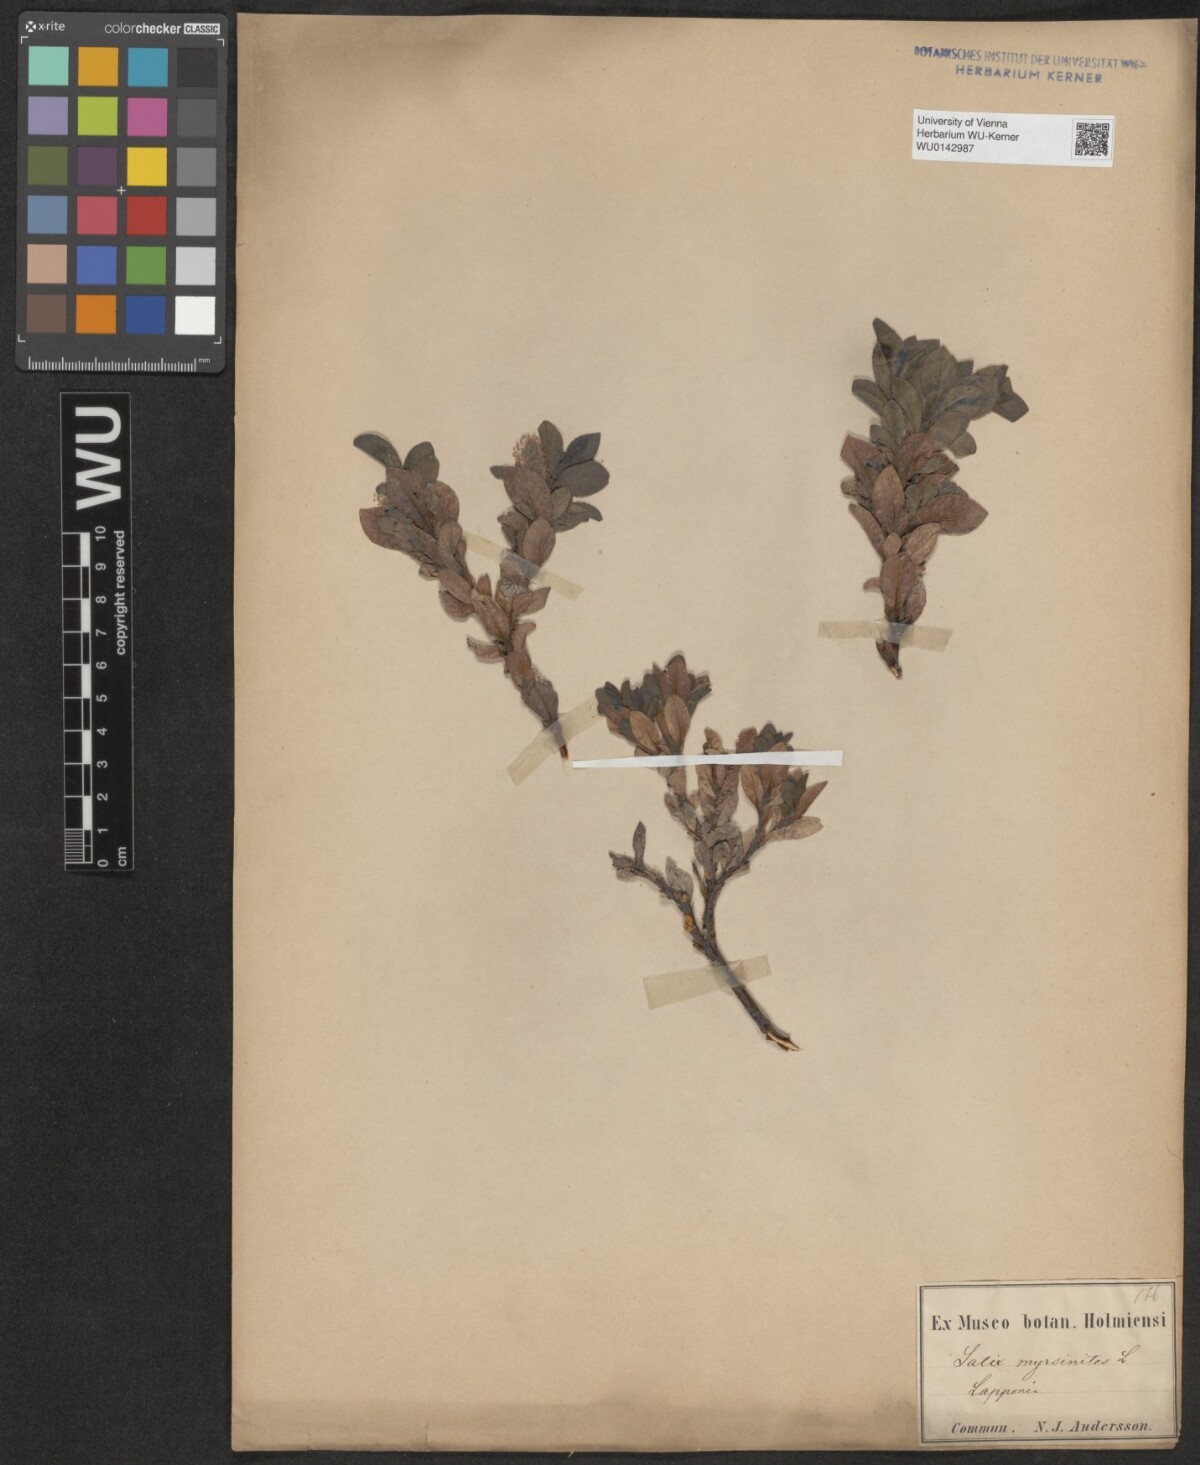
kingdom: Plantae
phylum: Tracheophyta
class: Magnoliopsida
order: Malpighiales
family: Salicaceae
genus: Salix
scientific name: Salix myrsinites
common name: Myrtle willow
